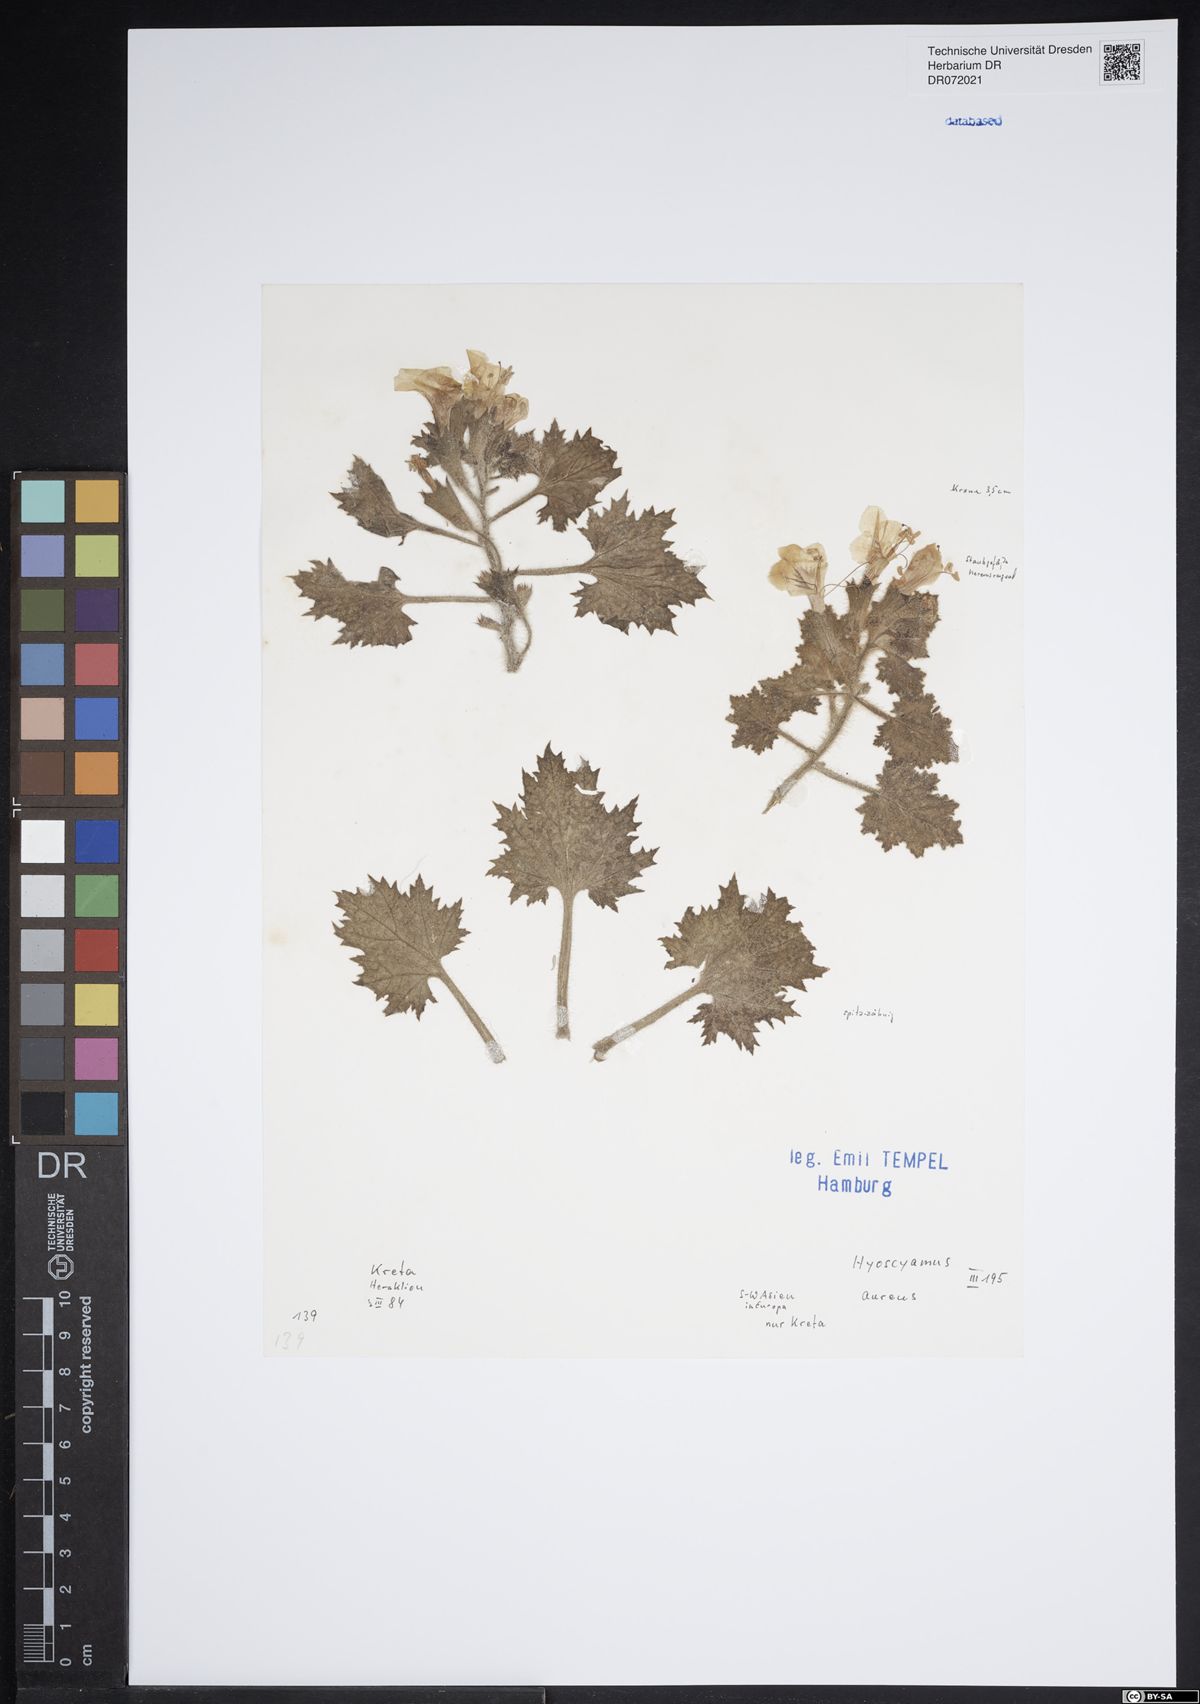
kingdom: Plantae
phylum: Tracheophyta
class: Magnoliopsida
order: Solanales
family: Solanaceae
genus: Hyoscyamus
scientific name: Hyoscyamus aureus
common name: Golden henbane
